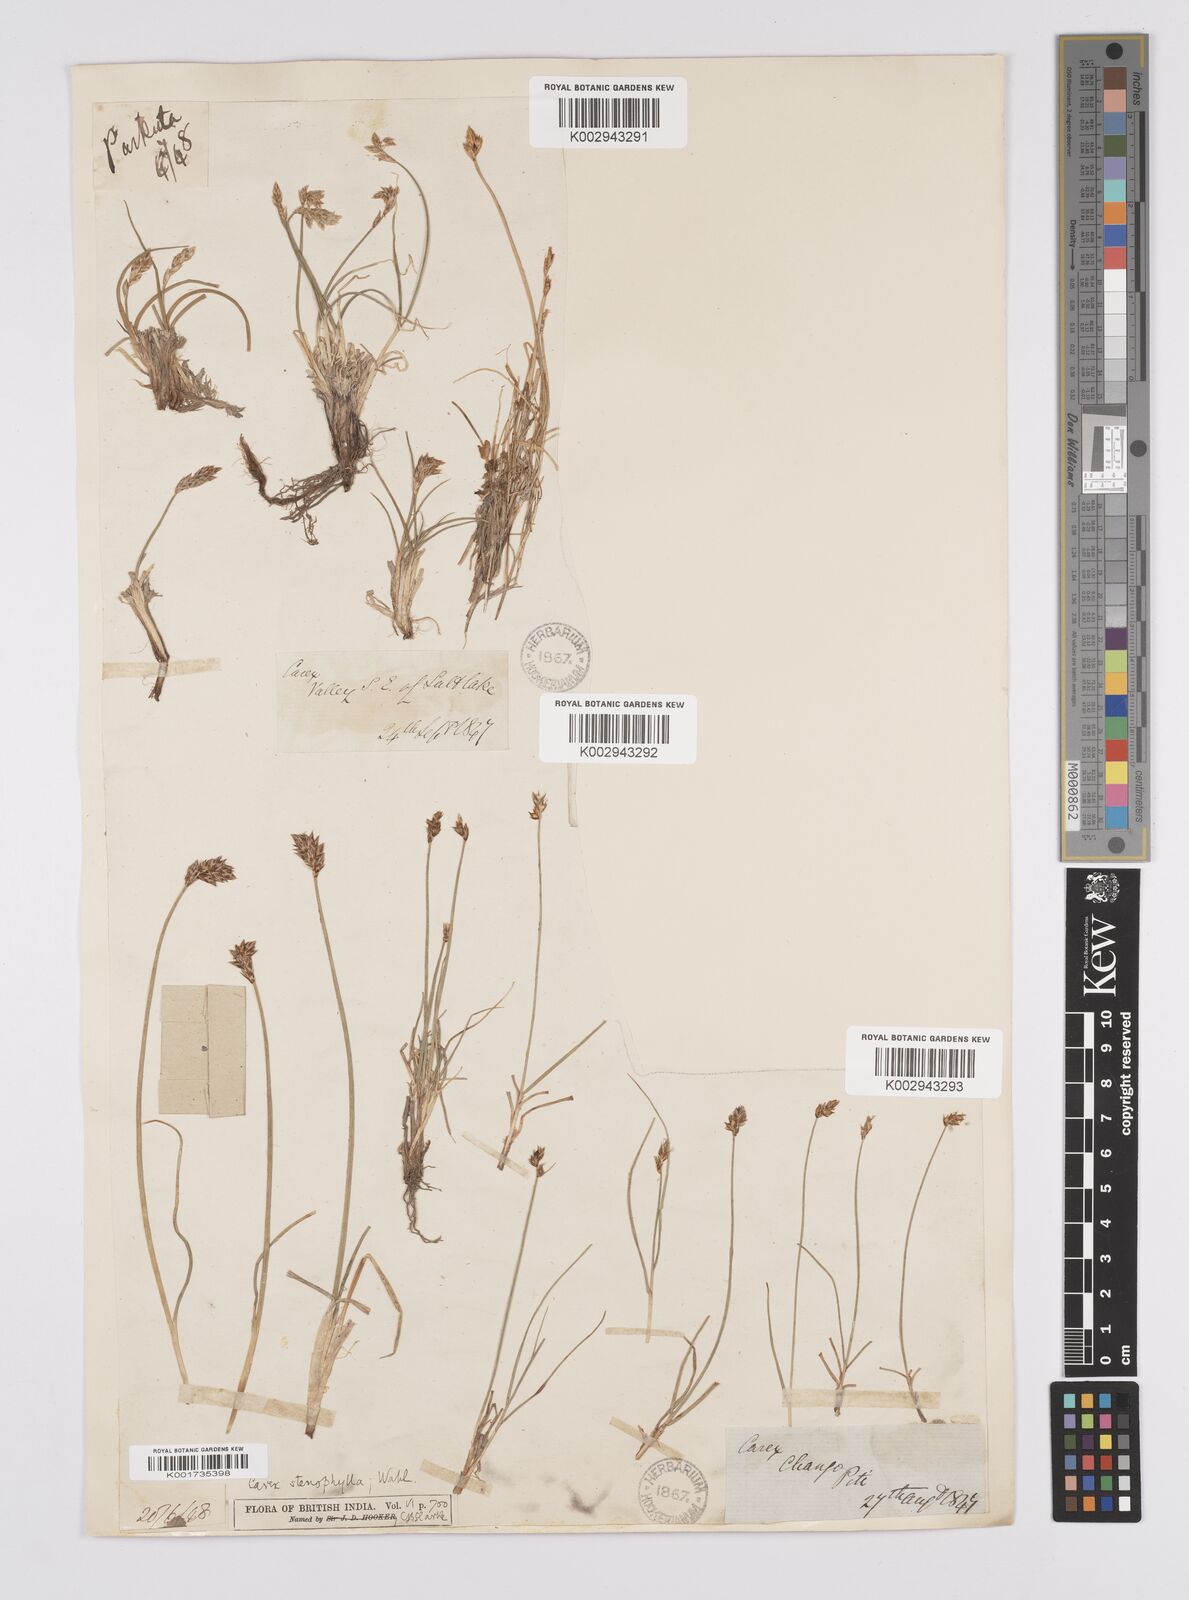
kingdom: Plantae
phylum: Tracheophyta
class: Liliopsida
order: Poales
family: Cyperaceae
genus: Carex
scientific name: Carex stenophylla
